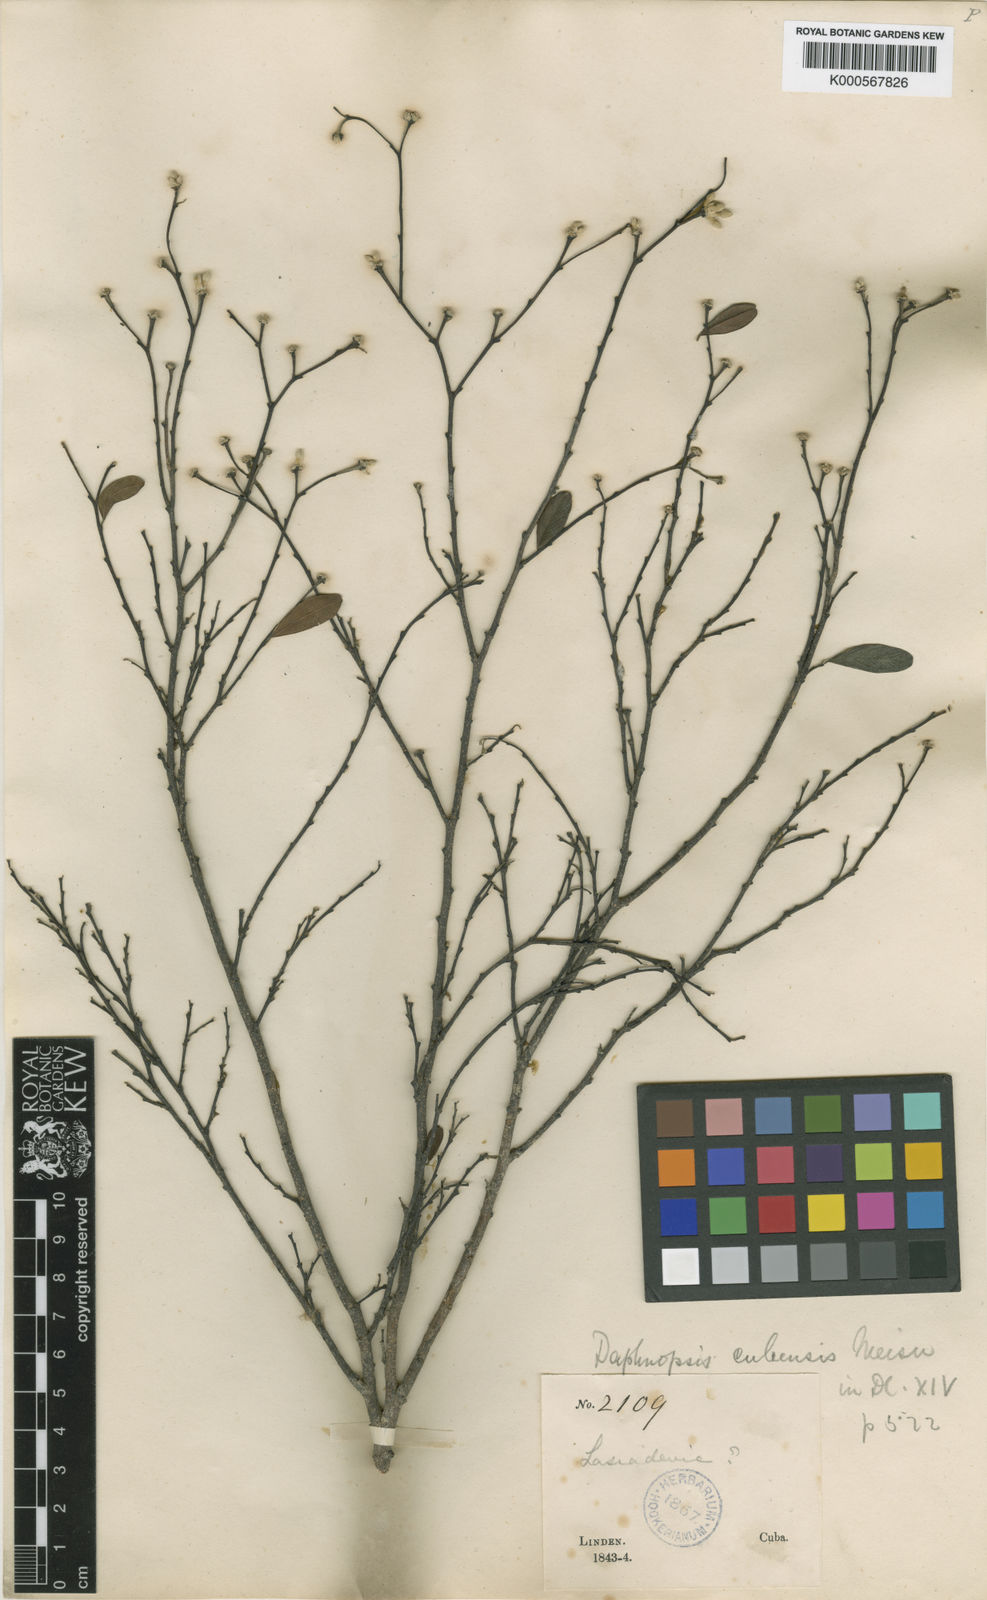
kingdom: Plantae
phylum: Tracheophyta
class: Magnoliopsida
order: Malvales
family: Thymelaeaceae
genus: Linodendron
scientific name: Linodendron
